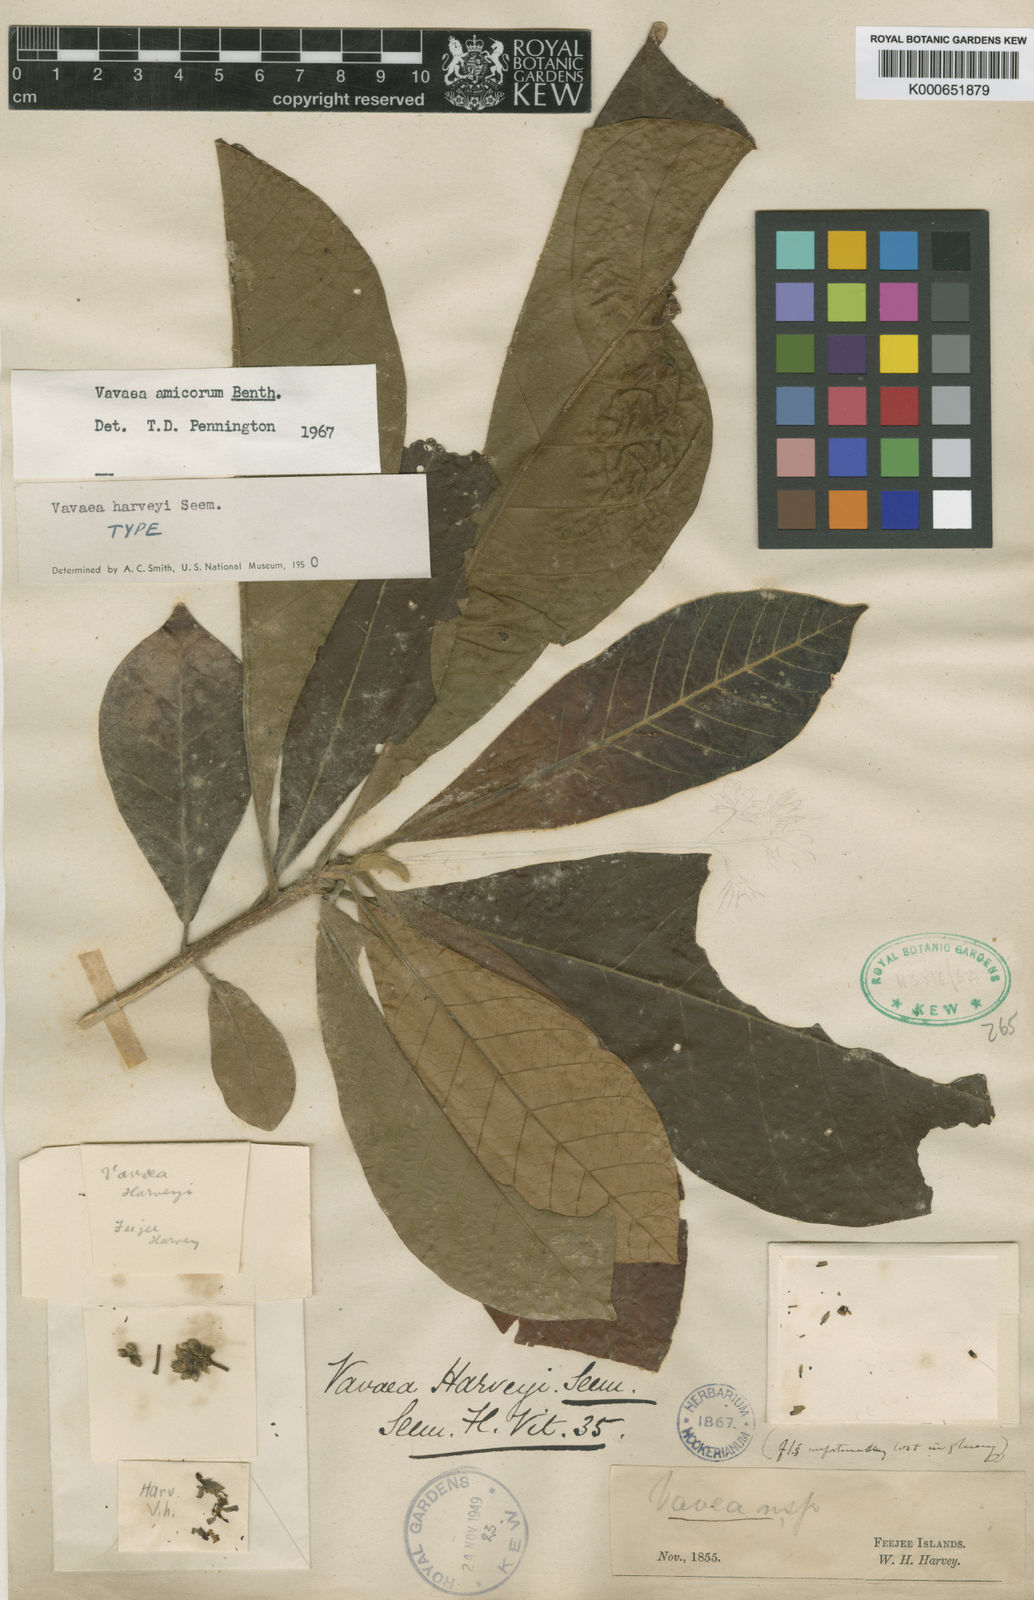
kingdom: Plantae
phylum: Tracheophyta
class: Magnoliopsida
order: Sapindales
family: Meliaceae
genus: Vavaea
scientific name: Vavaea amicorum
